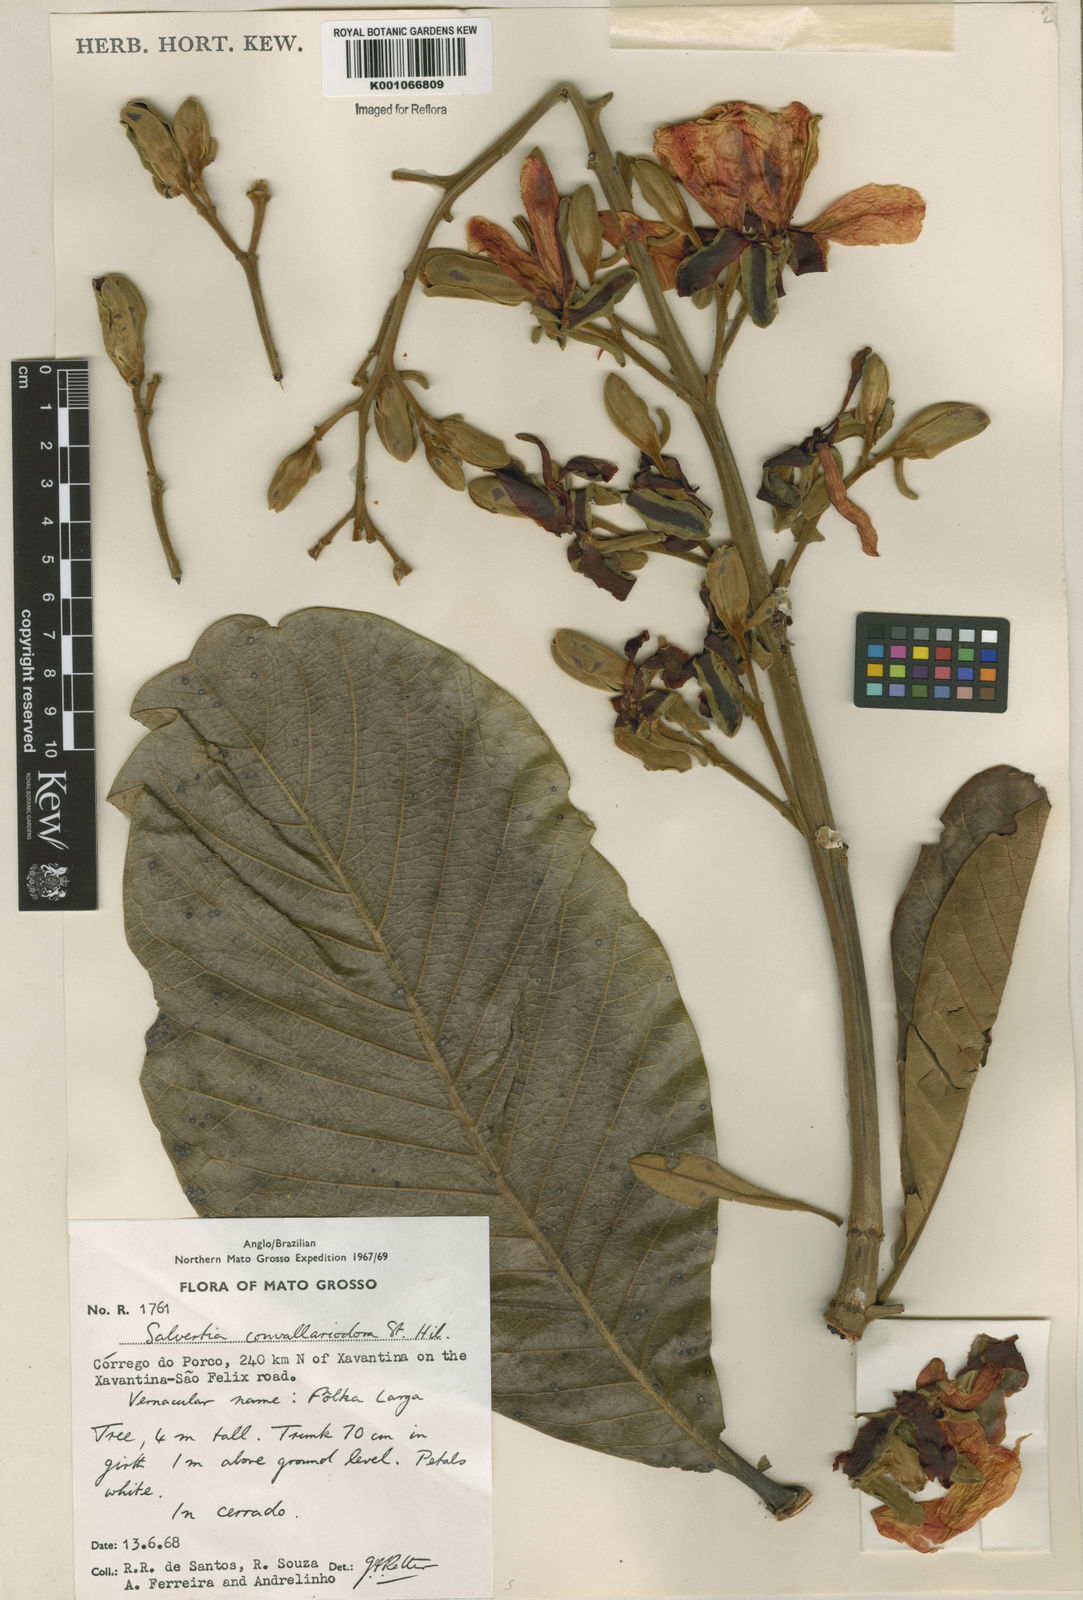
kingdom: Plantae
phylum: Tracheophyta
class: Magnoliopsida
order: Myrtales
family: Vochysiaceae
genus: Salvertia
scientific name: Salvertia convallariodora
